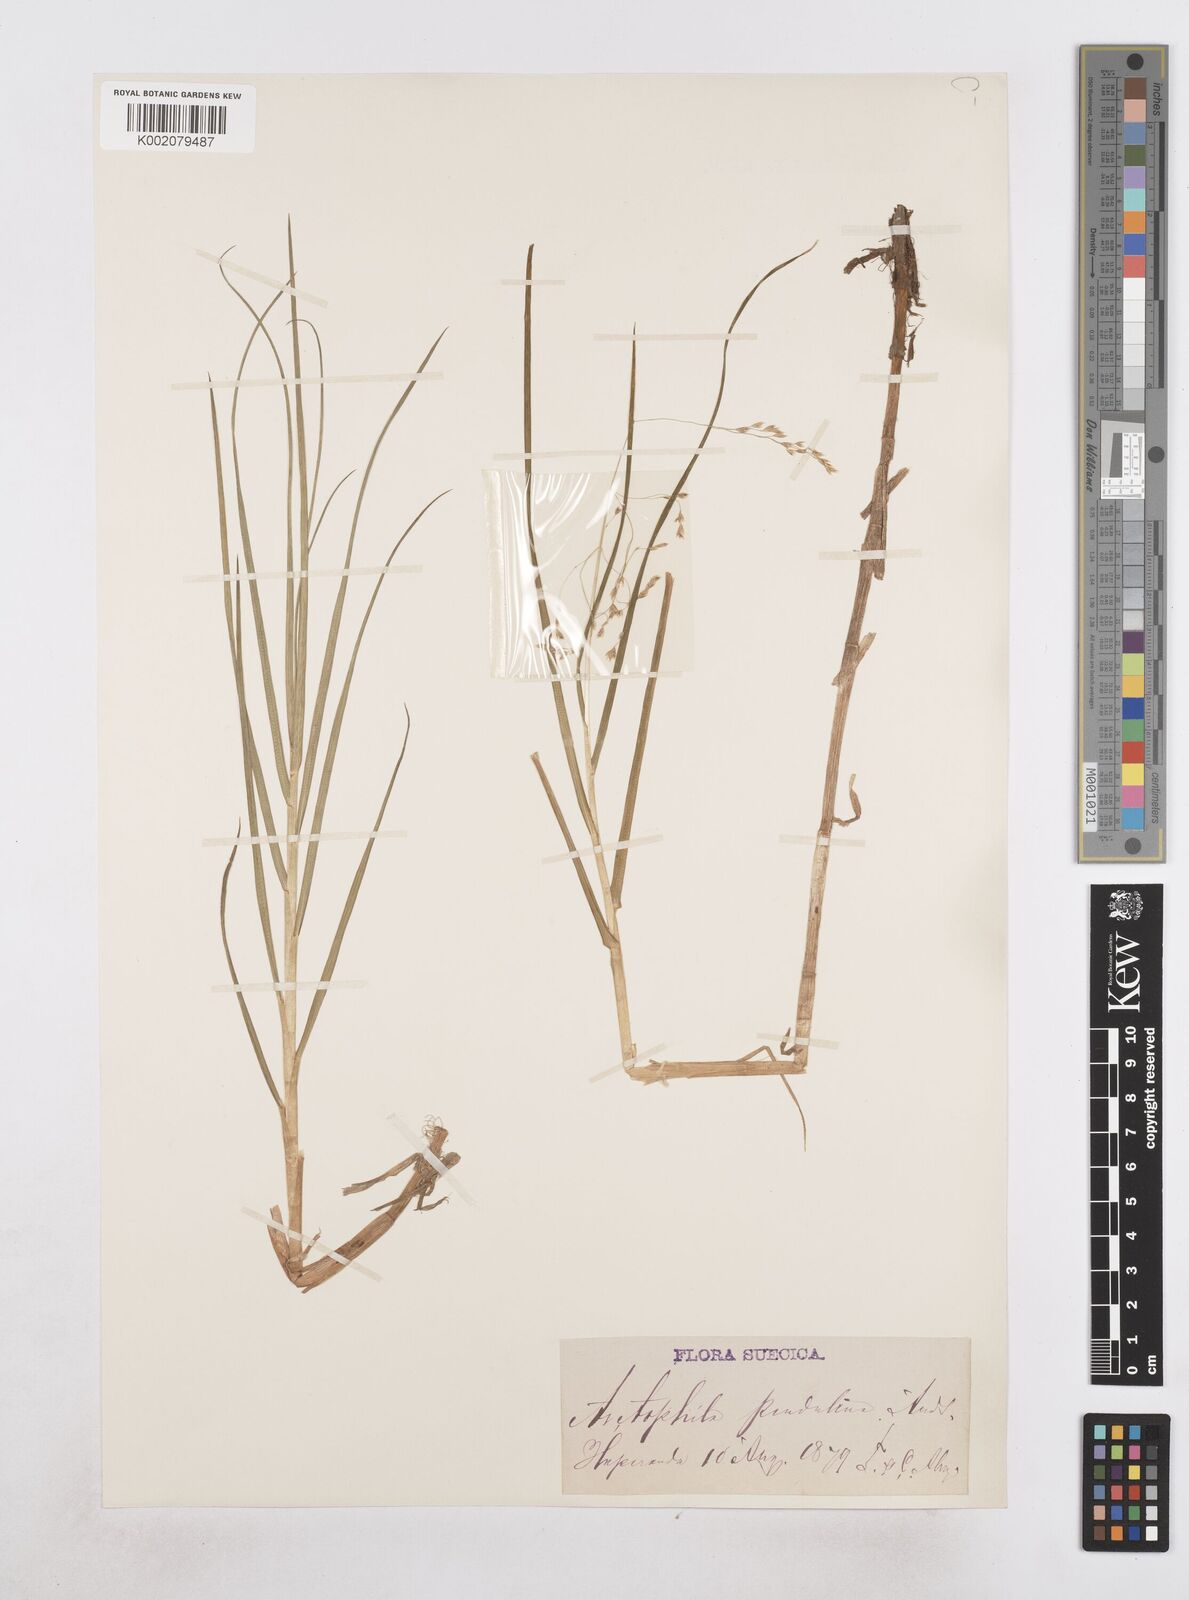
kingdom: Plantae
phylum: Tracheophyta
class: Liliopsida
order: Poales
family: Poaceae
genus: Dupontia
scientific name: Dupontia fulva
